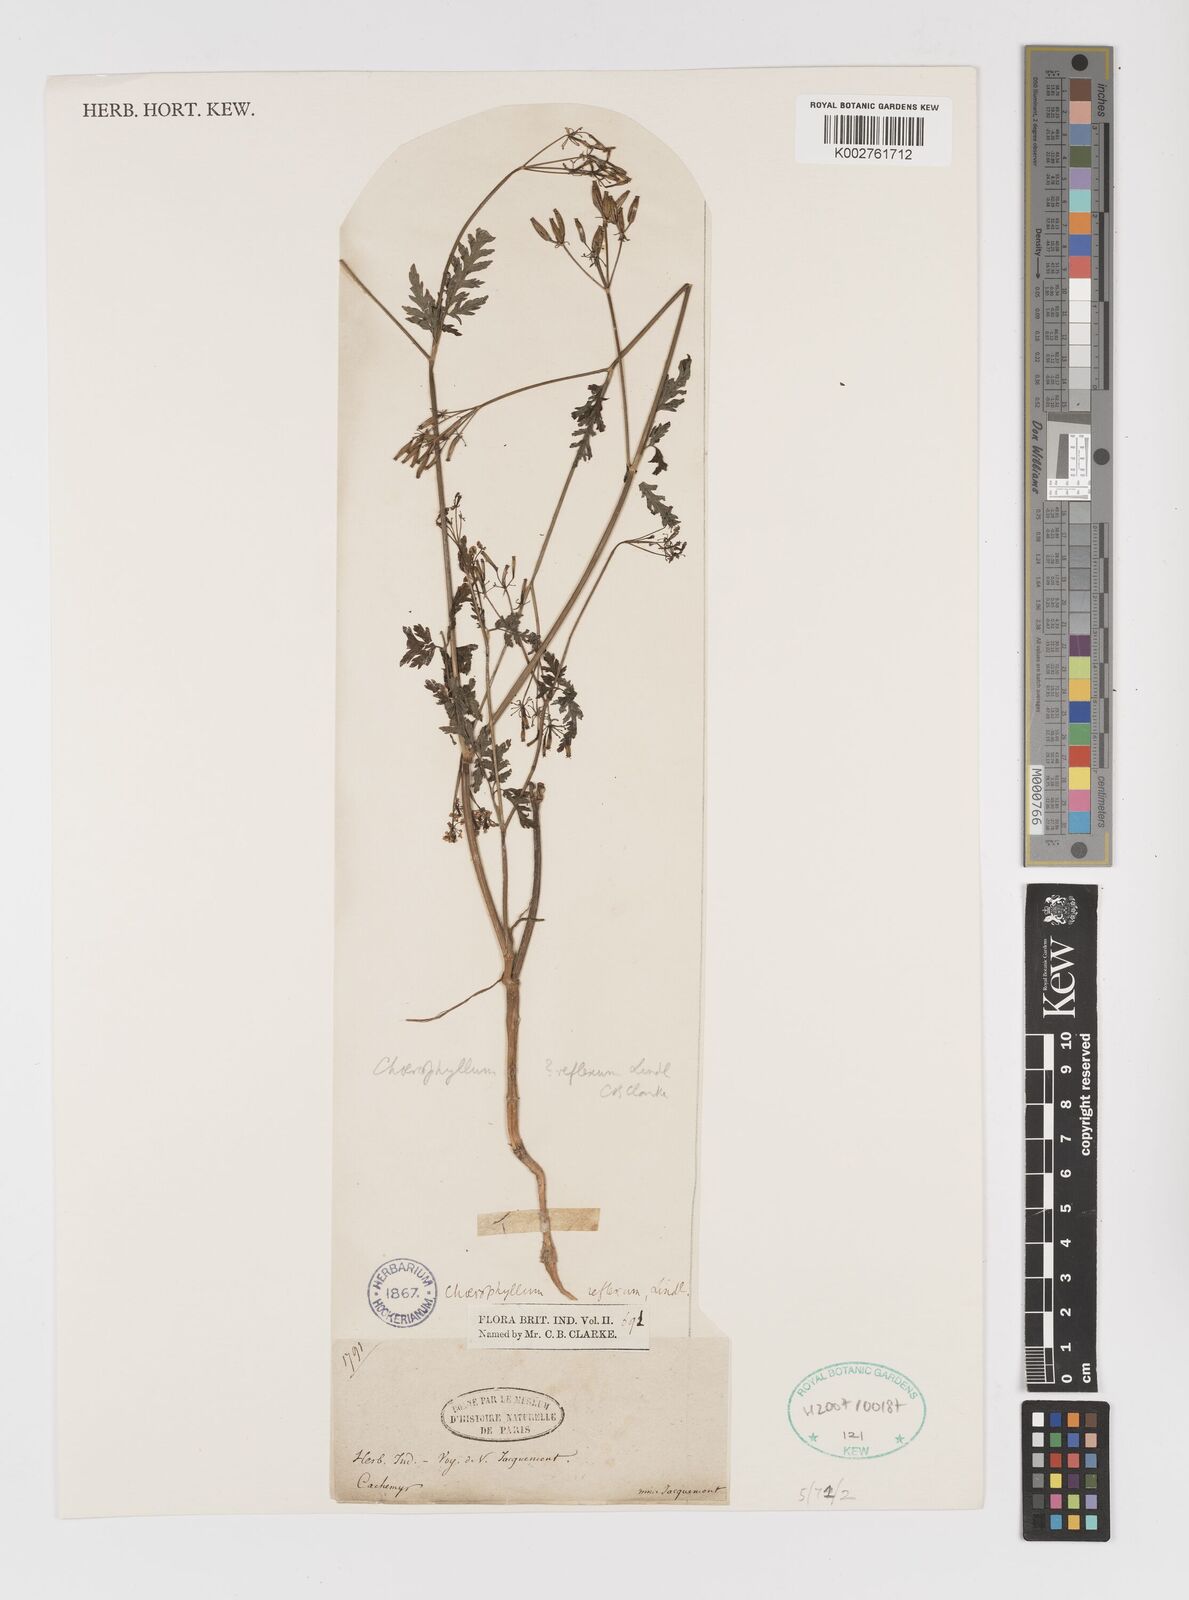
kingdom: Plantae
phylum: Tracheophyta
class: Magnoliopsida
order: Apiales
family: Apiaceae
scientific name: Apiaceae
